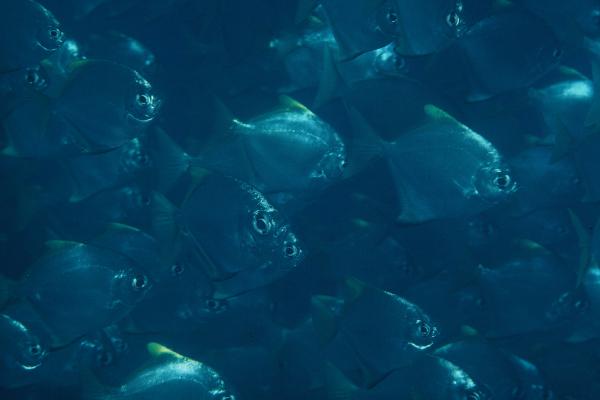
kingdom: Animalia
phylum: Chordata
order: Perciformes
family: Monodactylidae
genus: Monodactylus
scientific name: Monodactylus
